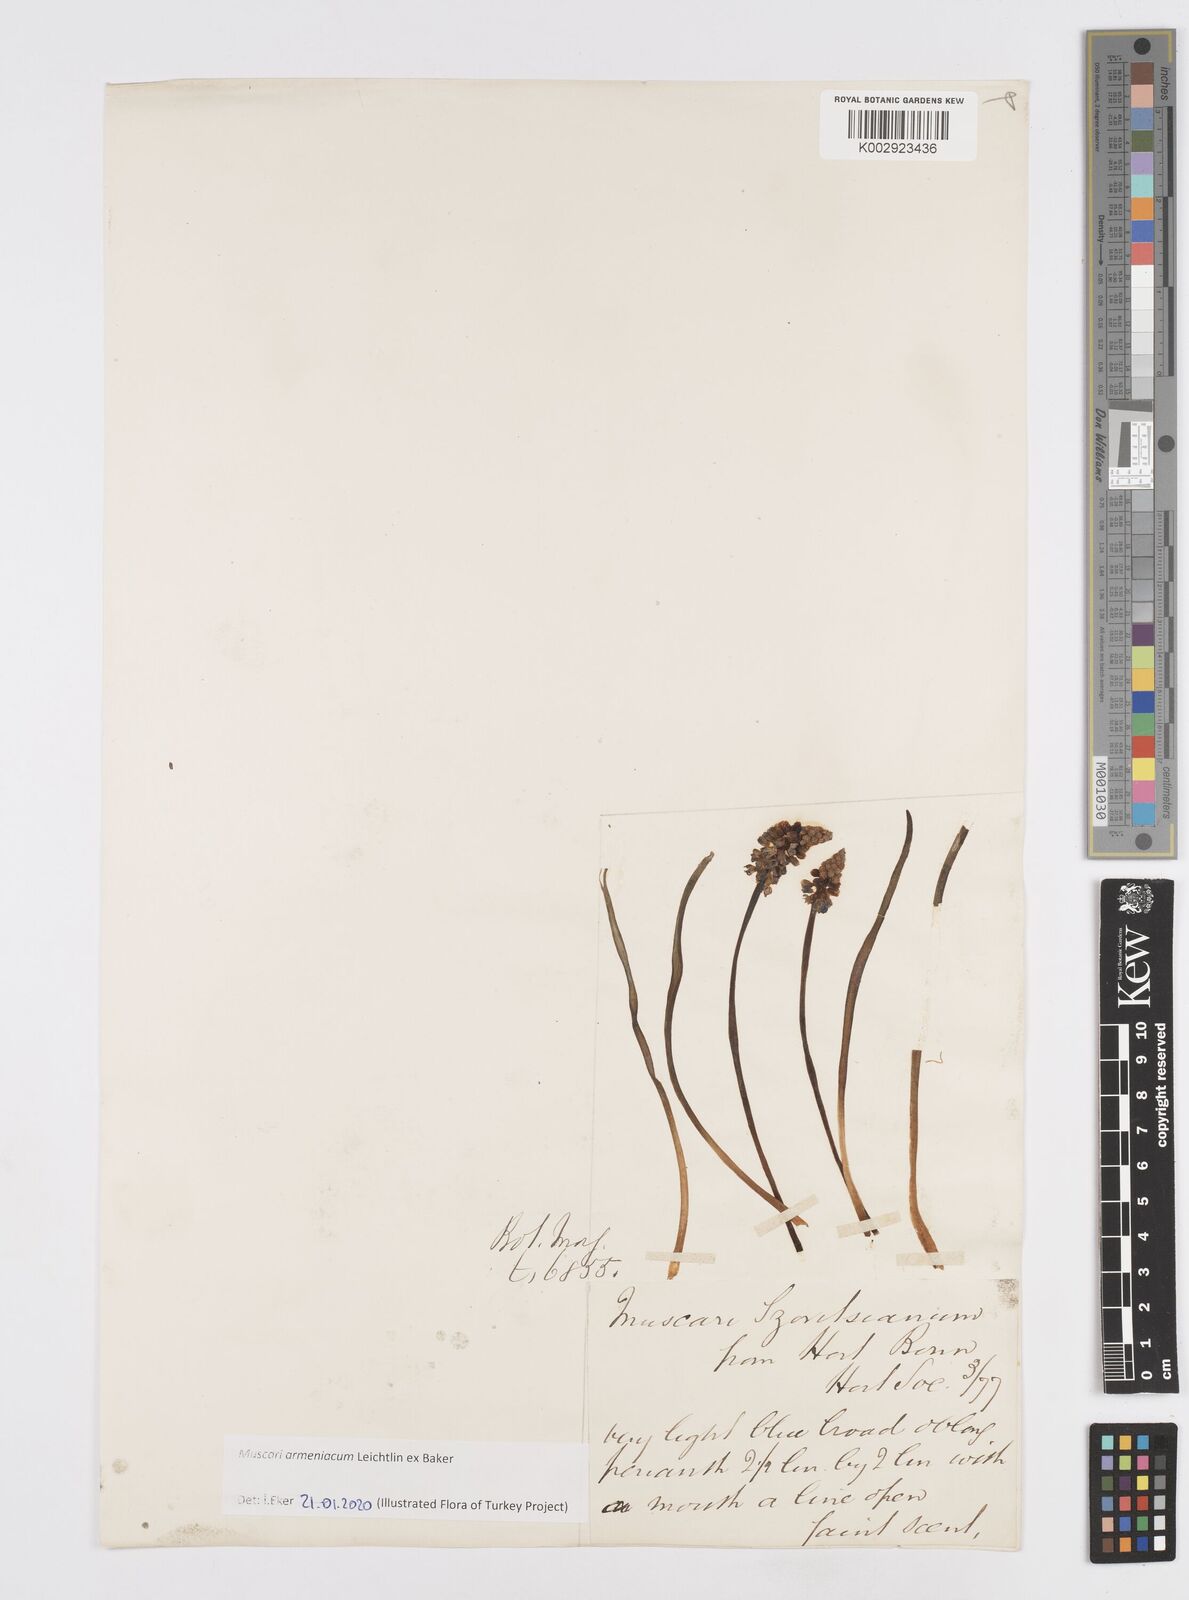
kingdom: Plantae
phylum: Tracheophyta
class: Liliopsida
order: Asparagales
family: Asparagaceae
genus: Muscari
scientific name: Muscari neglectum
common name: Grape-hyacinth
